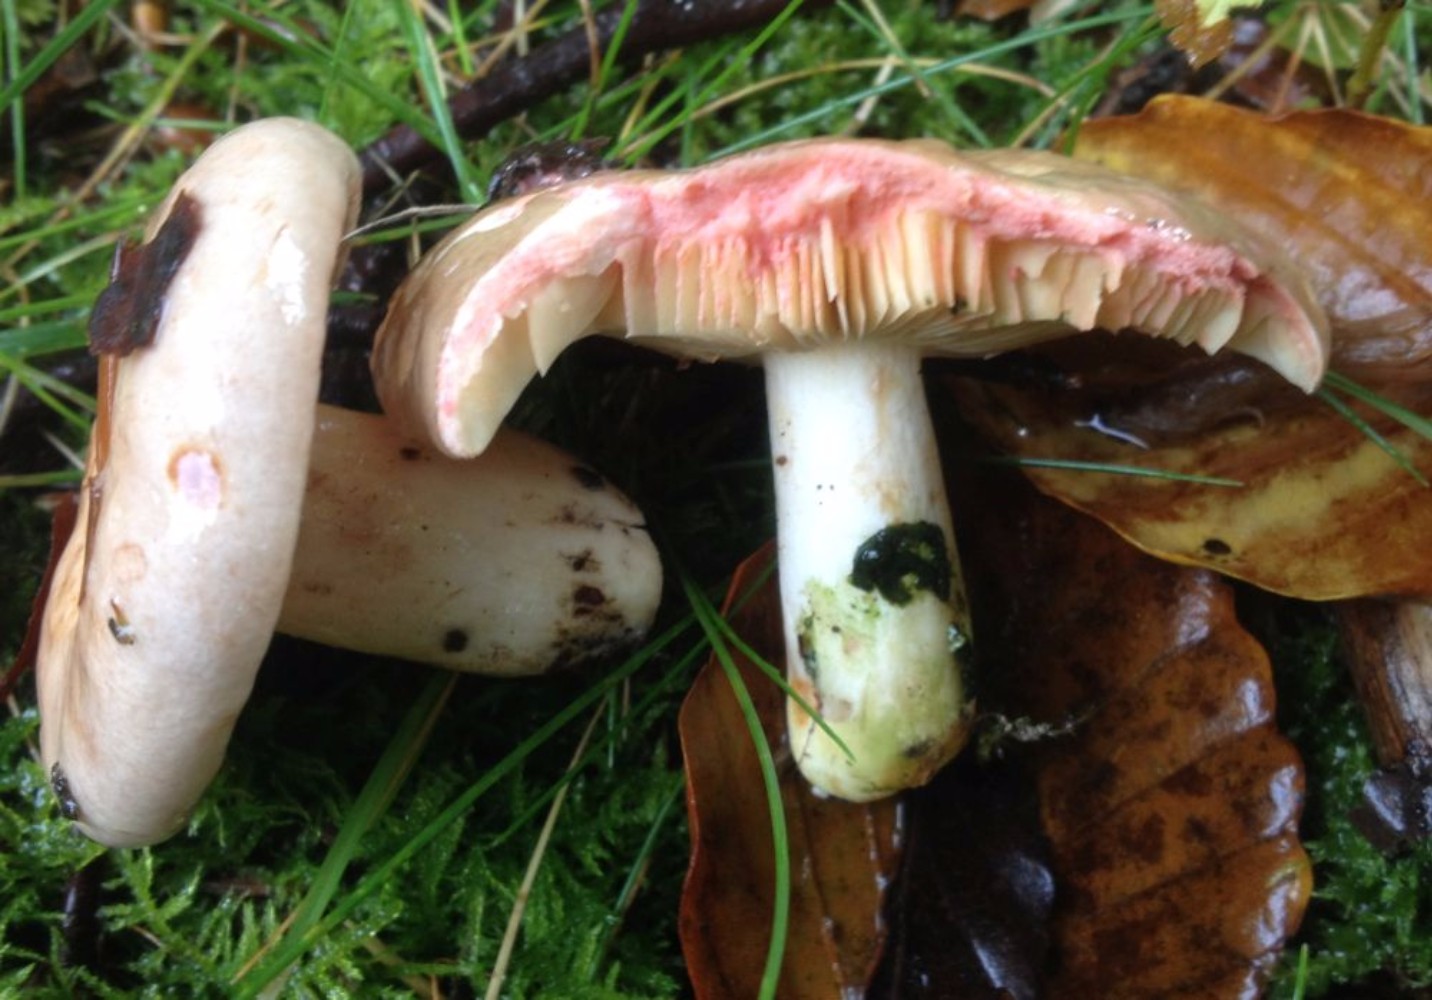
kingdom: Fungi
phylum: Basidiomycota
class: Agaricomycetes
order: Russulales
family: Russulaceae
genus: Lactarius
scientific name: Lactarius acris
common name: rosamælket mælkehat
